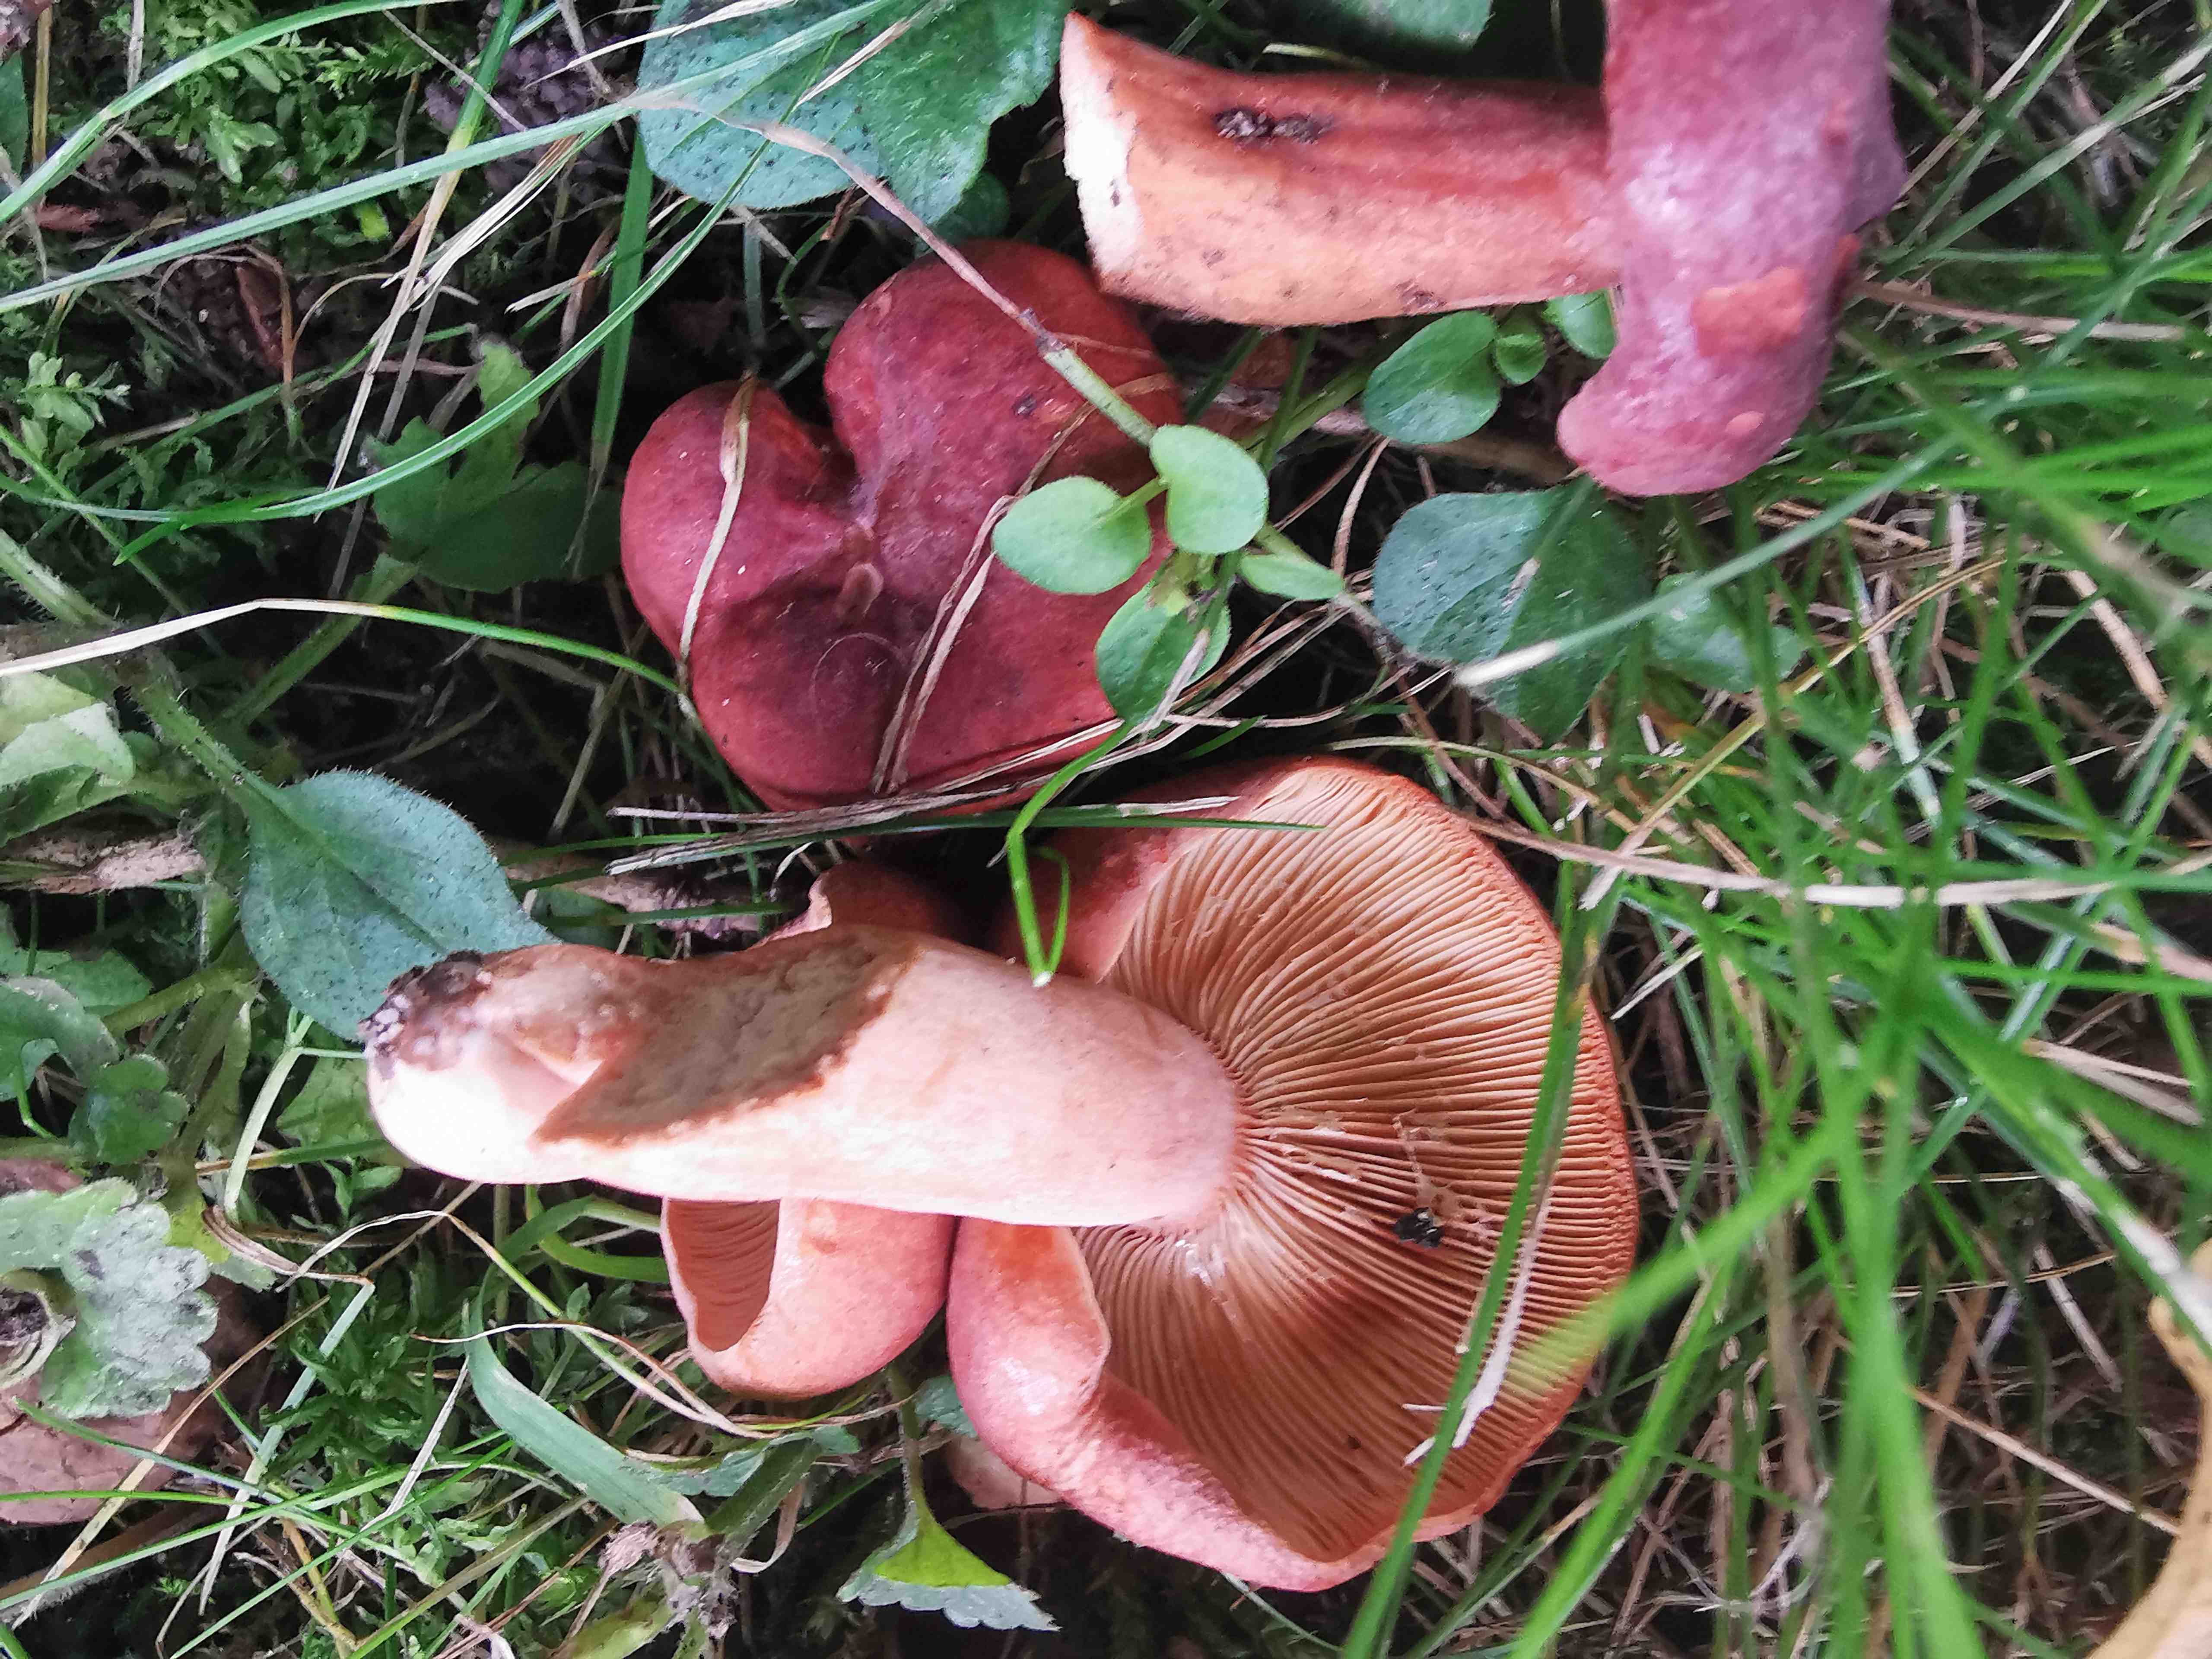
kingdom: Fungi
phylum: Basidiomycota
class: Agaricomycetes
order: Russulales
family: Russulaceae
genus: Lactarius
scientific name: Lactarius fulvissimus
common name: ræve-mælkehat
